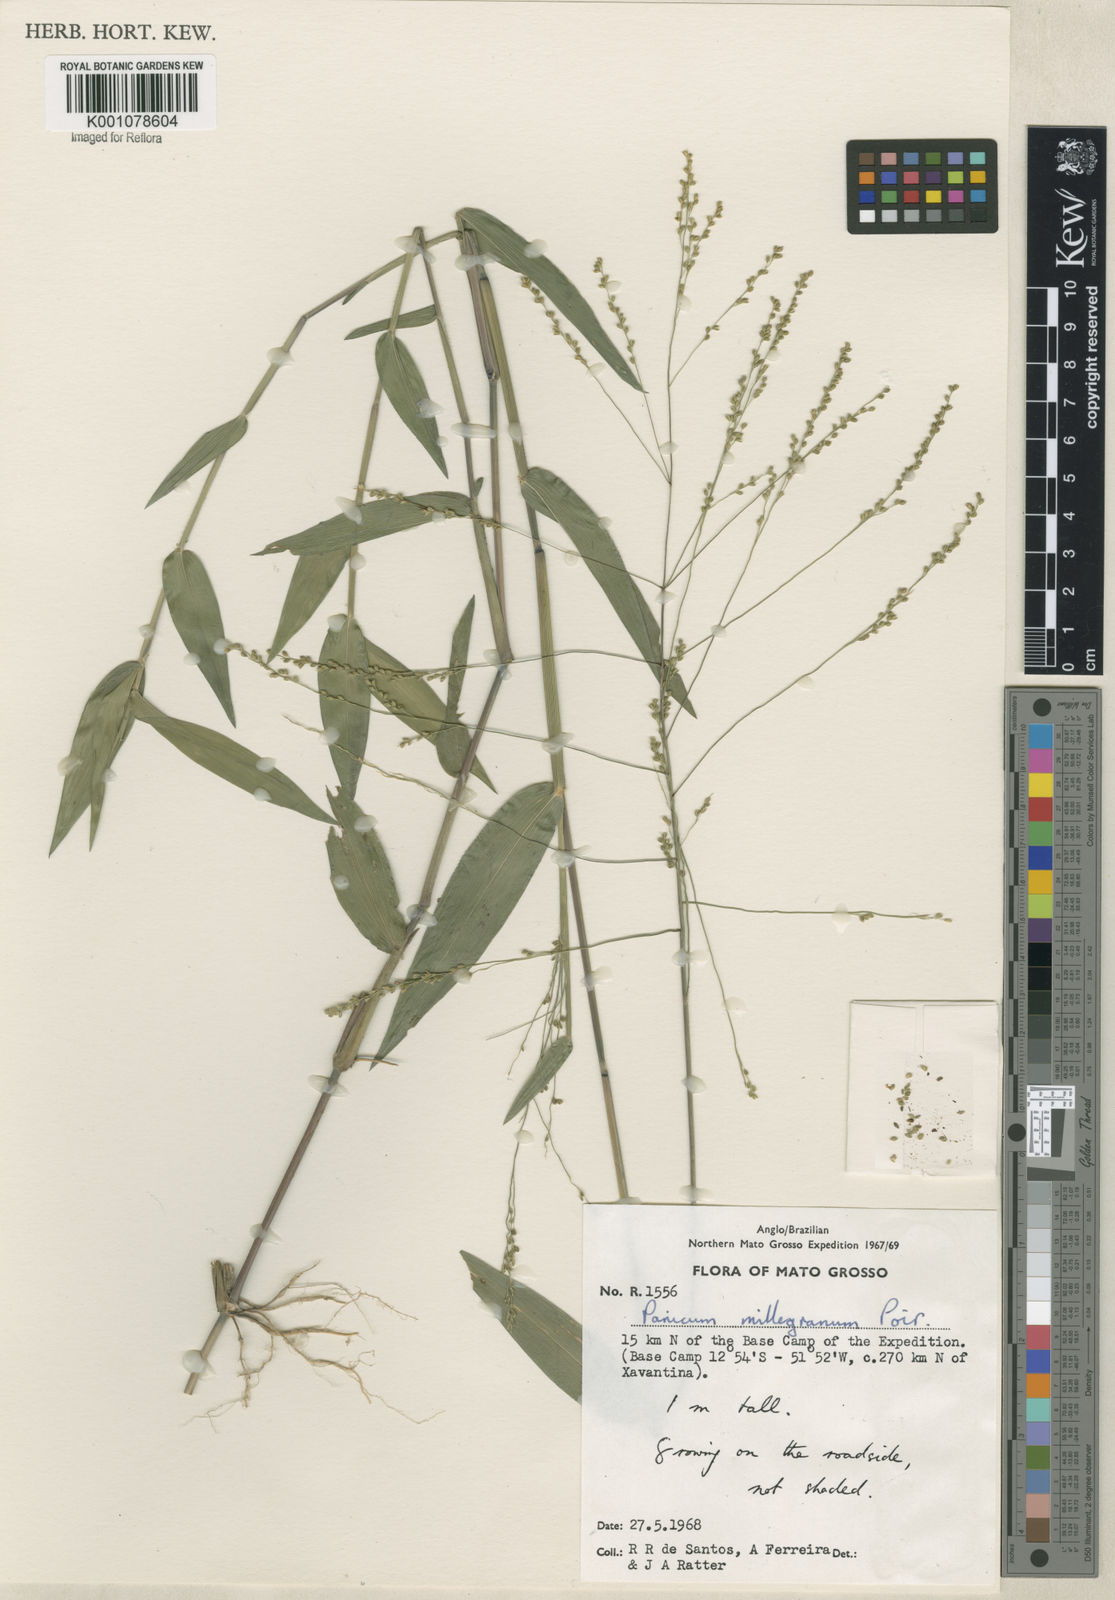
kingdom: Plantae
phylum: Tracheophyta
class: Liliopsida
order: Poales
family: Poaceae
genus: Panicum
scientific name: Panicum sellowii
